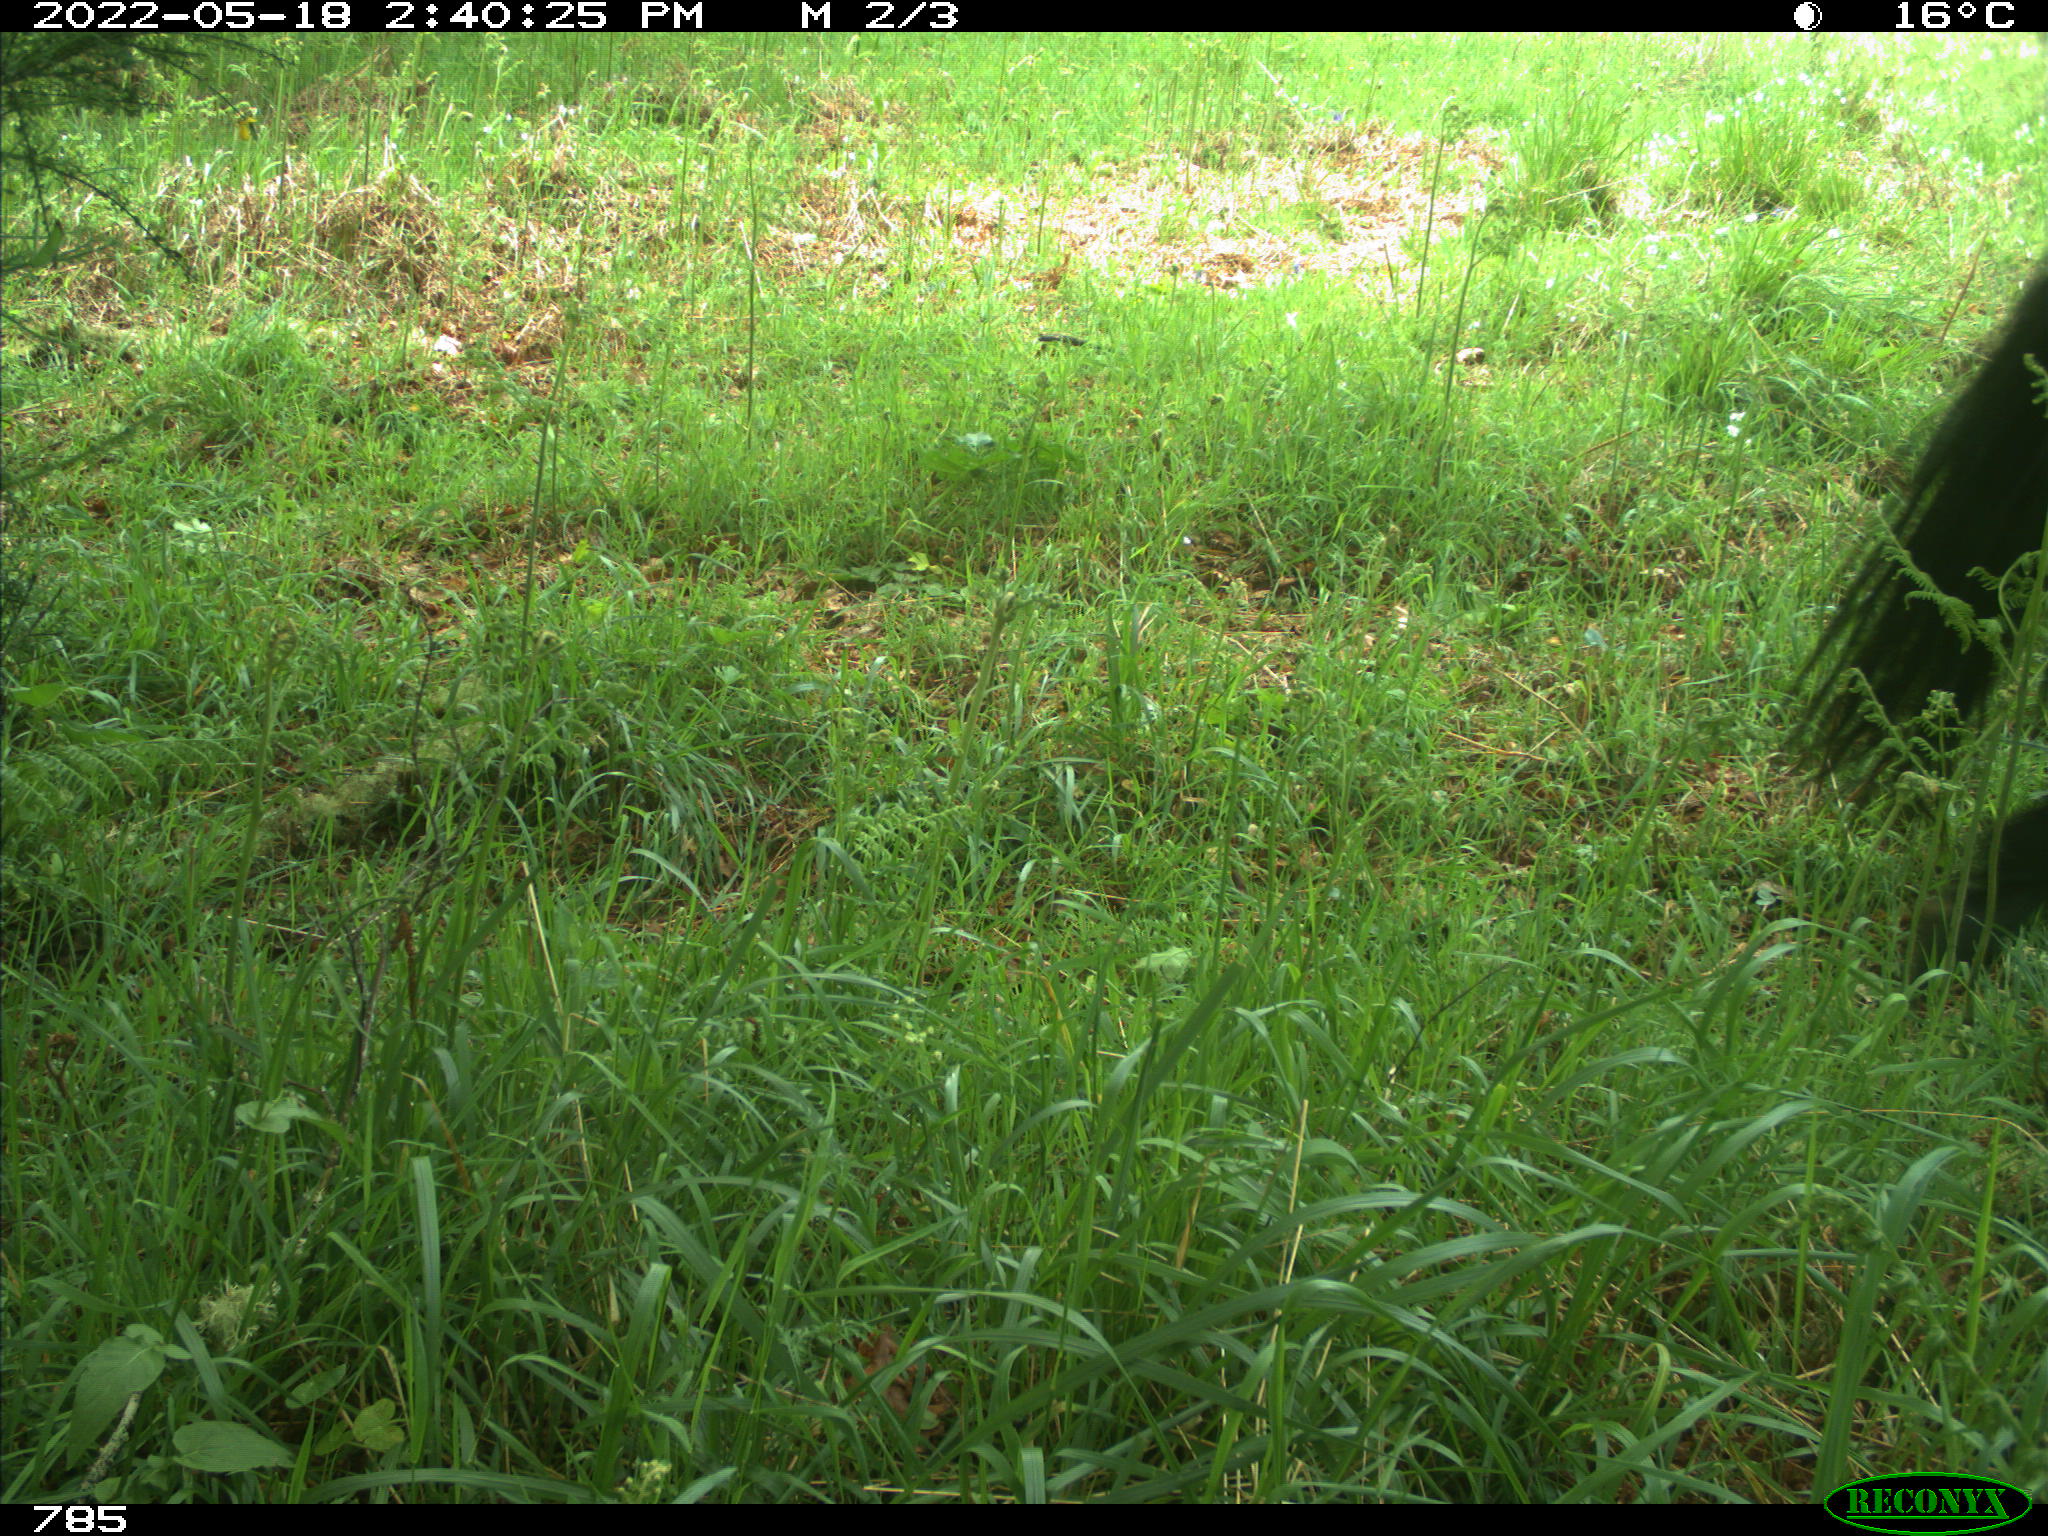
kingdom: Animalia
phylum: Chordata
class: Mammalia
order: Perissodactyla
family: Equidae
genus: Equus
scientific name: Equus caballus
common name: Horse
